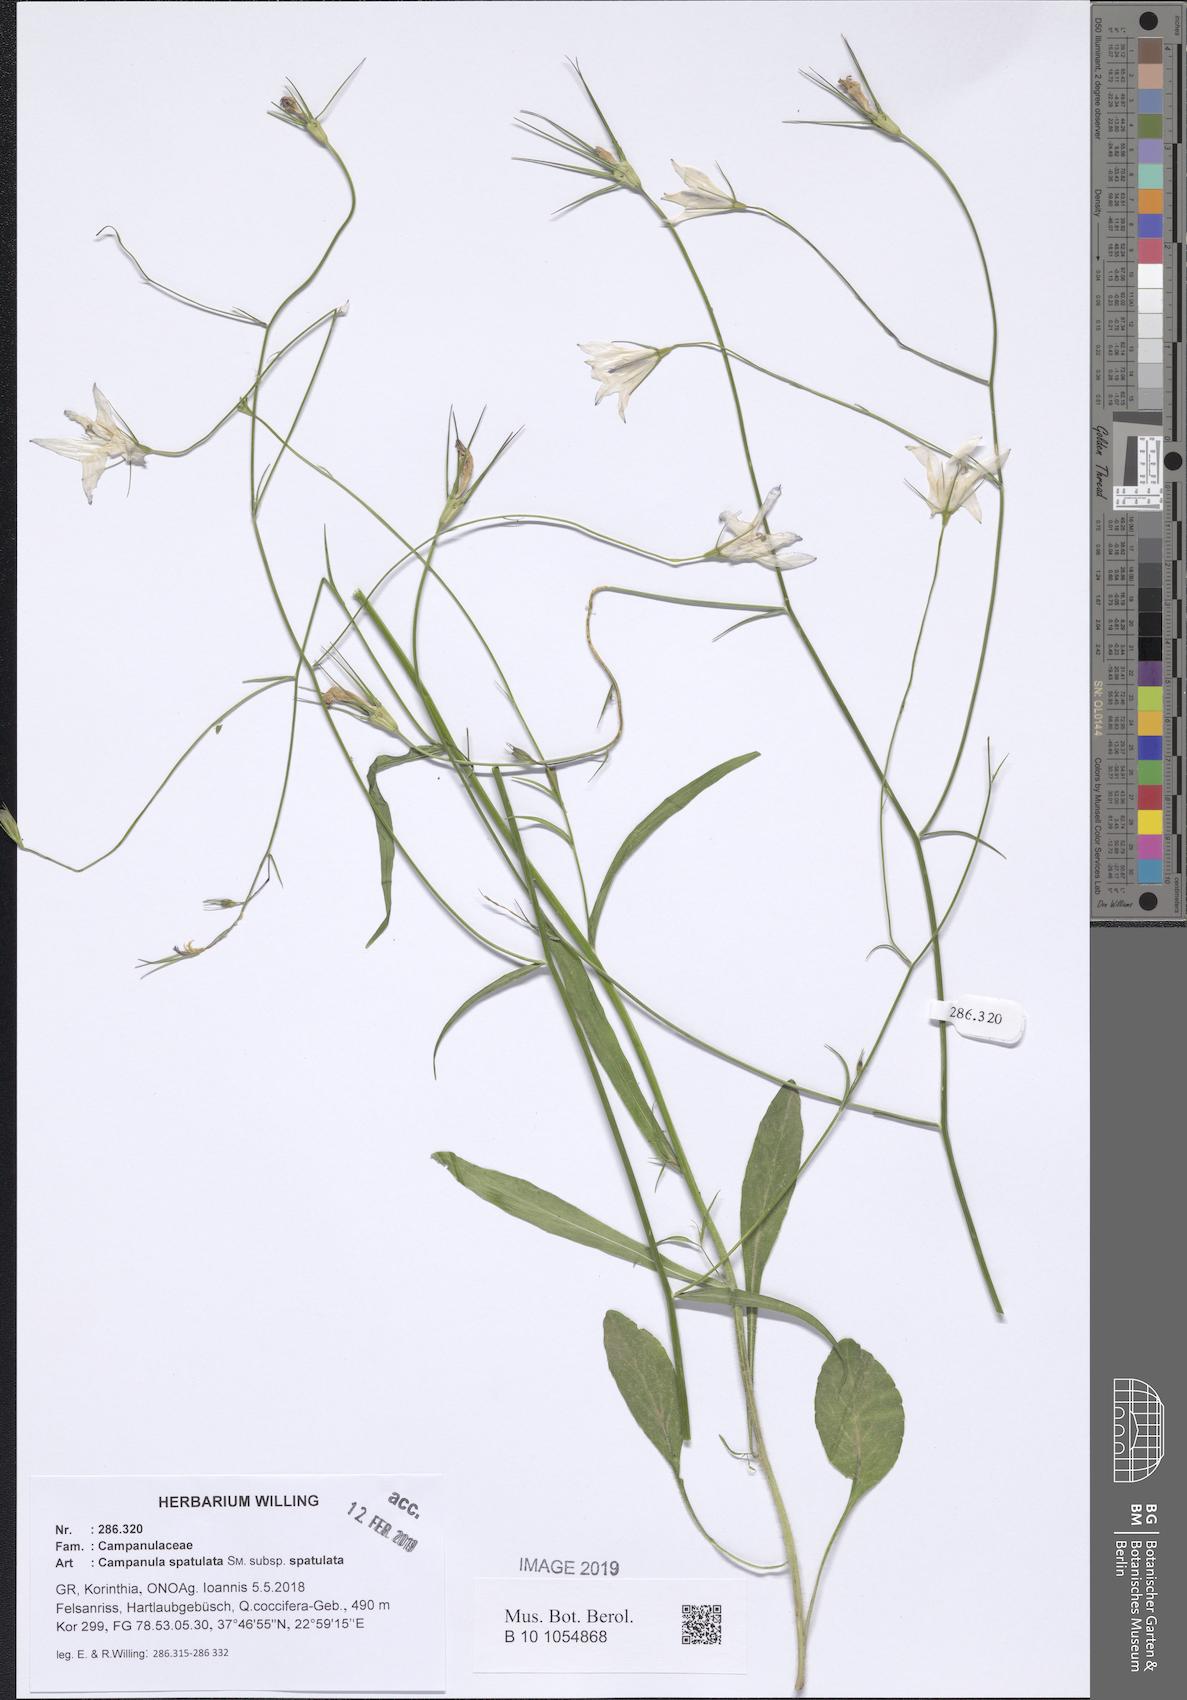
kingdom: Plantae
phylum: Tracheophyta
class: Magnoliopsida
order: Asterales
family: Campanulaceae
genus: Campanula
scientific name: Campanula spatulata
